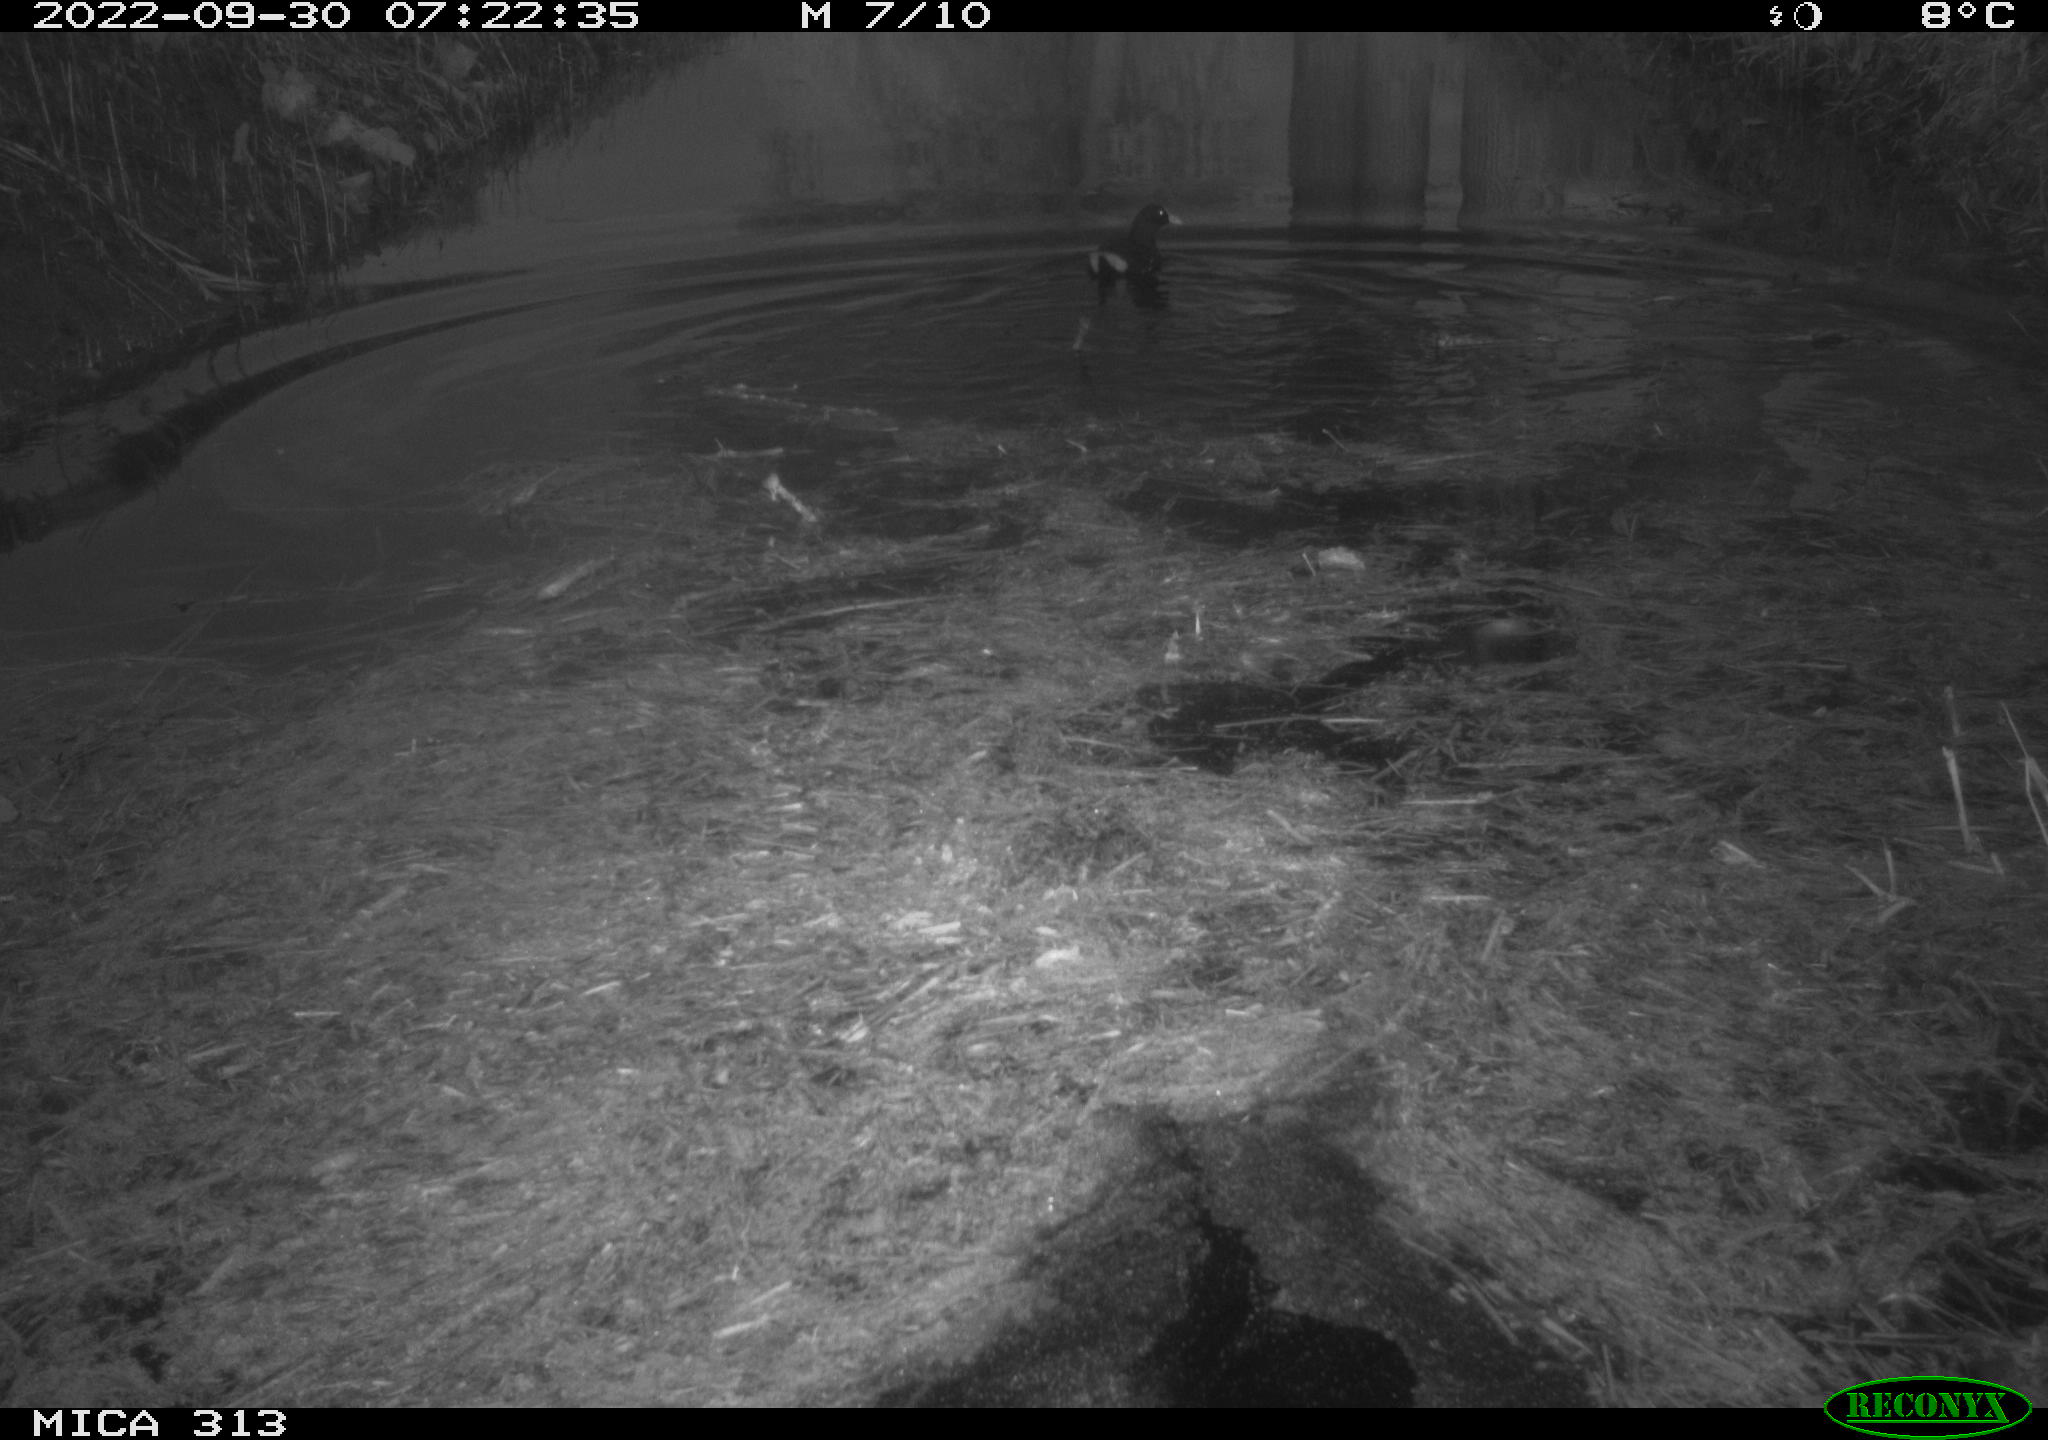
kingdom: Animalia
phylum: Chordata
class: Aves
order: Gruiformes
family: Rallidae
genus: Gallinula
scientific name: Gallinula chloropus
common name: Common moorhen
